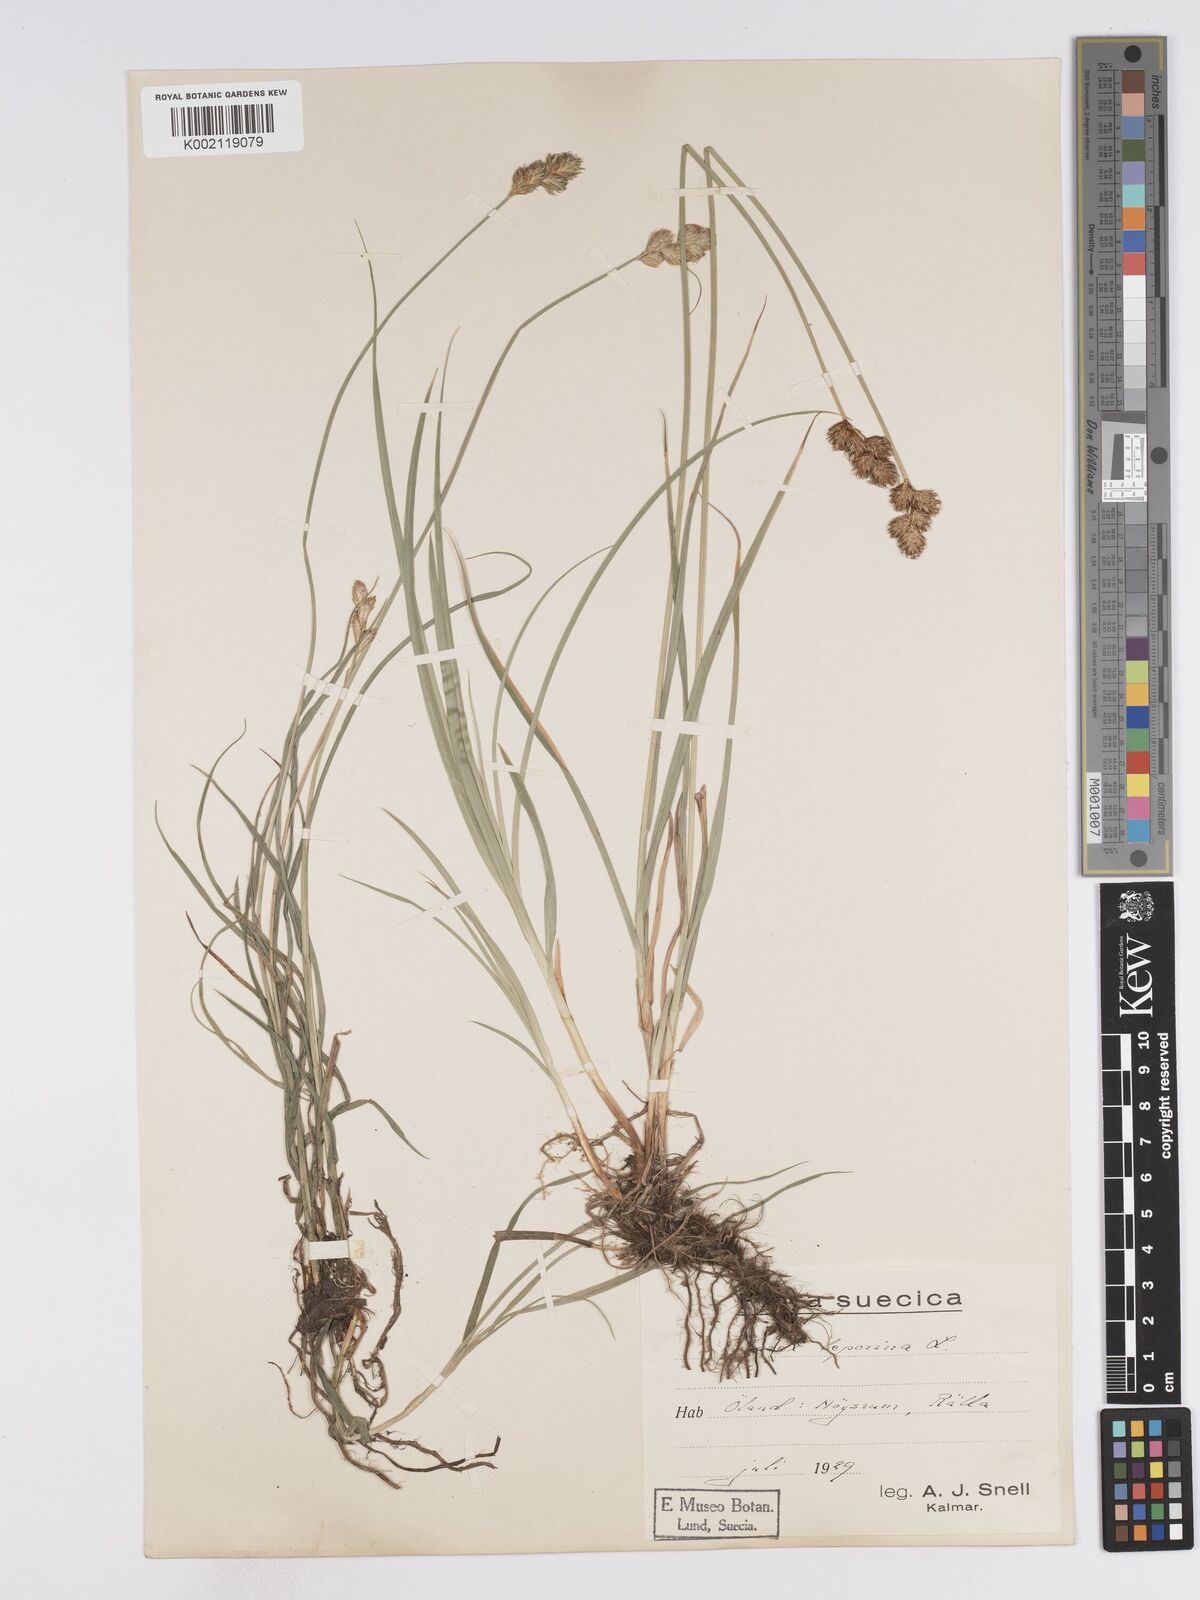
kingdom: Plantae
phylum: Tracheophyta
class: Liliopsida
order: Poales
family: Cyperaceae
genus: Carex
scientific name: Carex leporina
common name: Oval sedge
